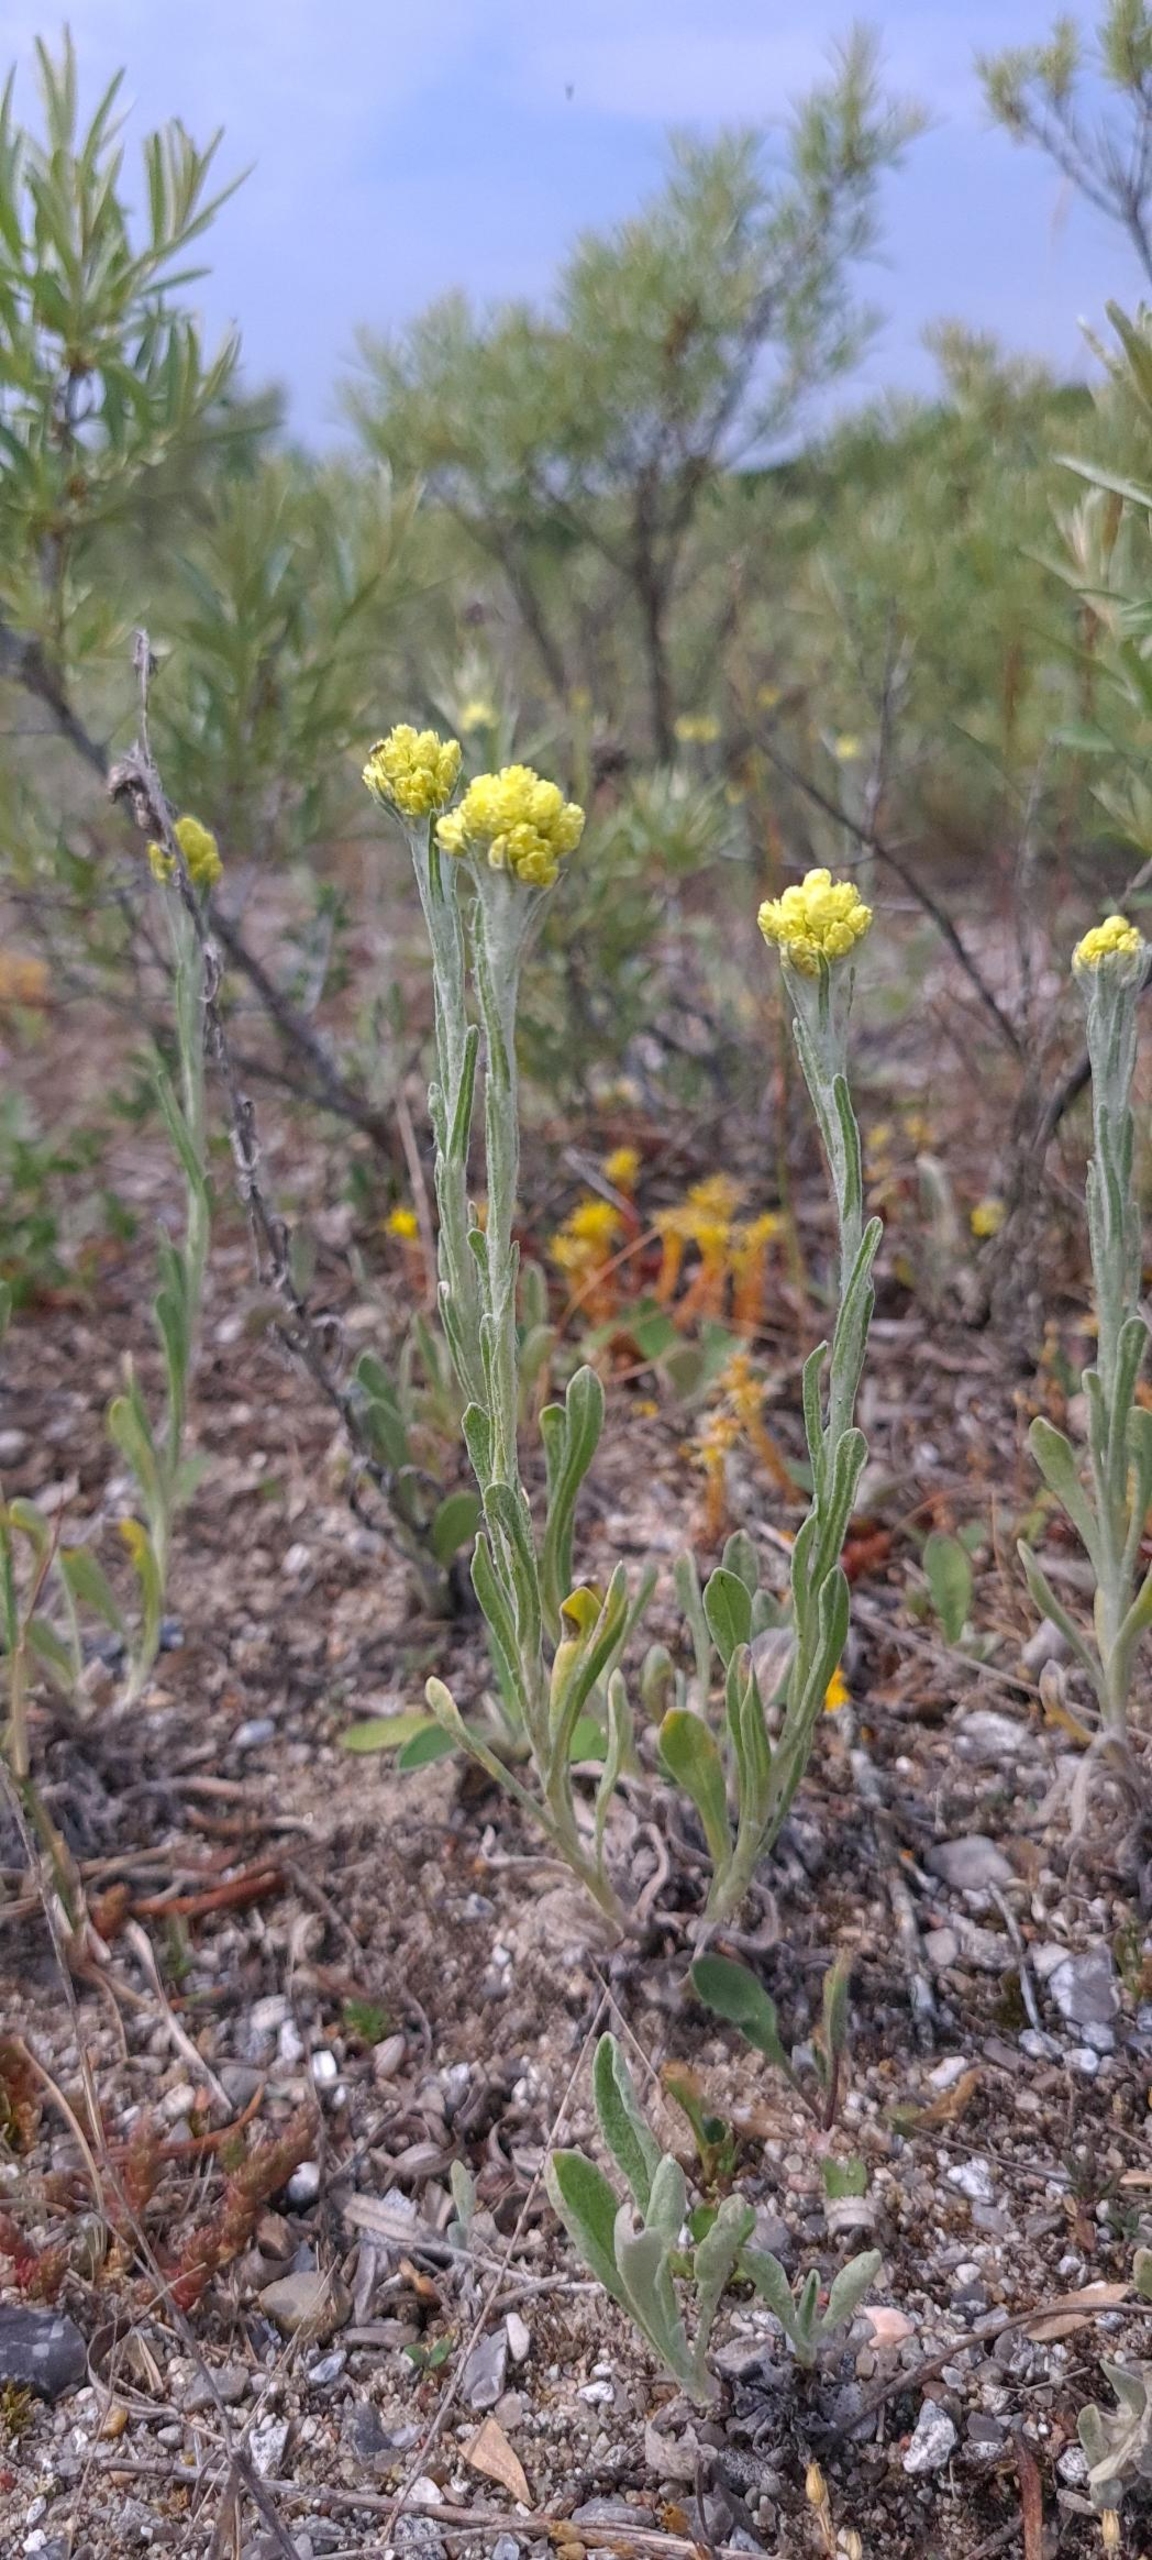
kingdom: Plantae
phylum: Tracheophyta
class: Magnoliopsida
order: Asterales
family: Asteraceae
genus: Helichrysum
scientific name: Helichrysum arenarium
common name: Gul evighedsblomst
